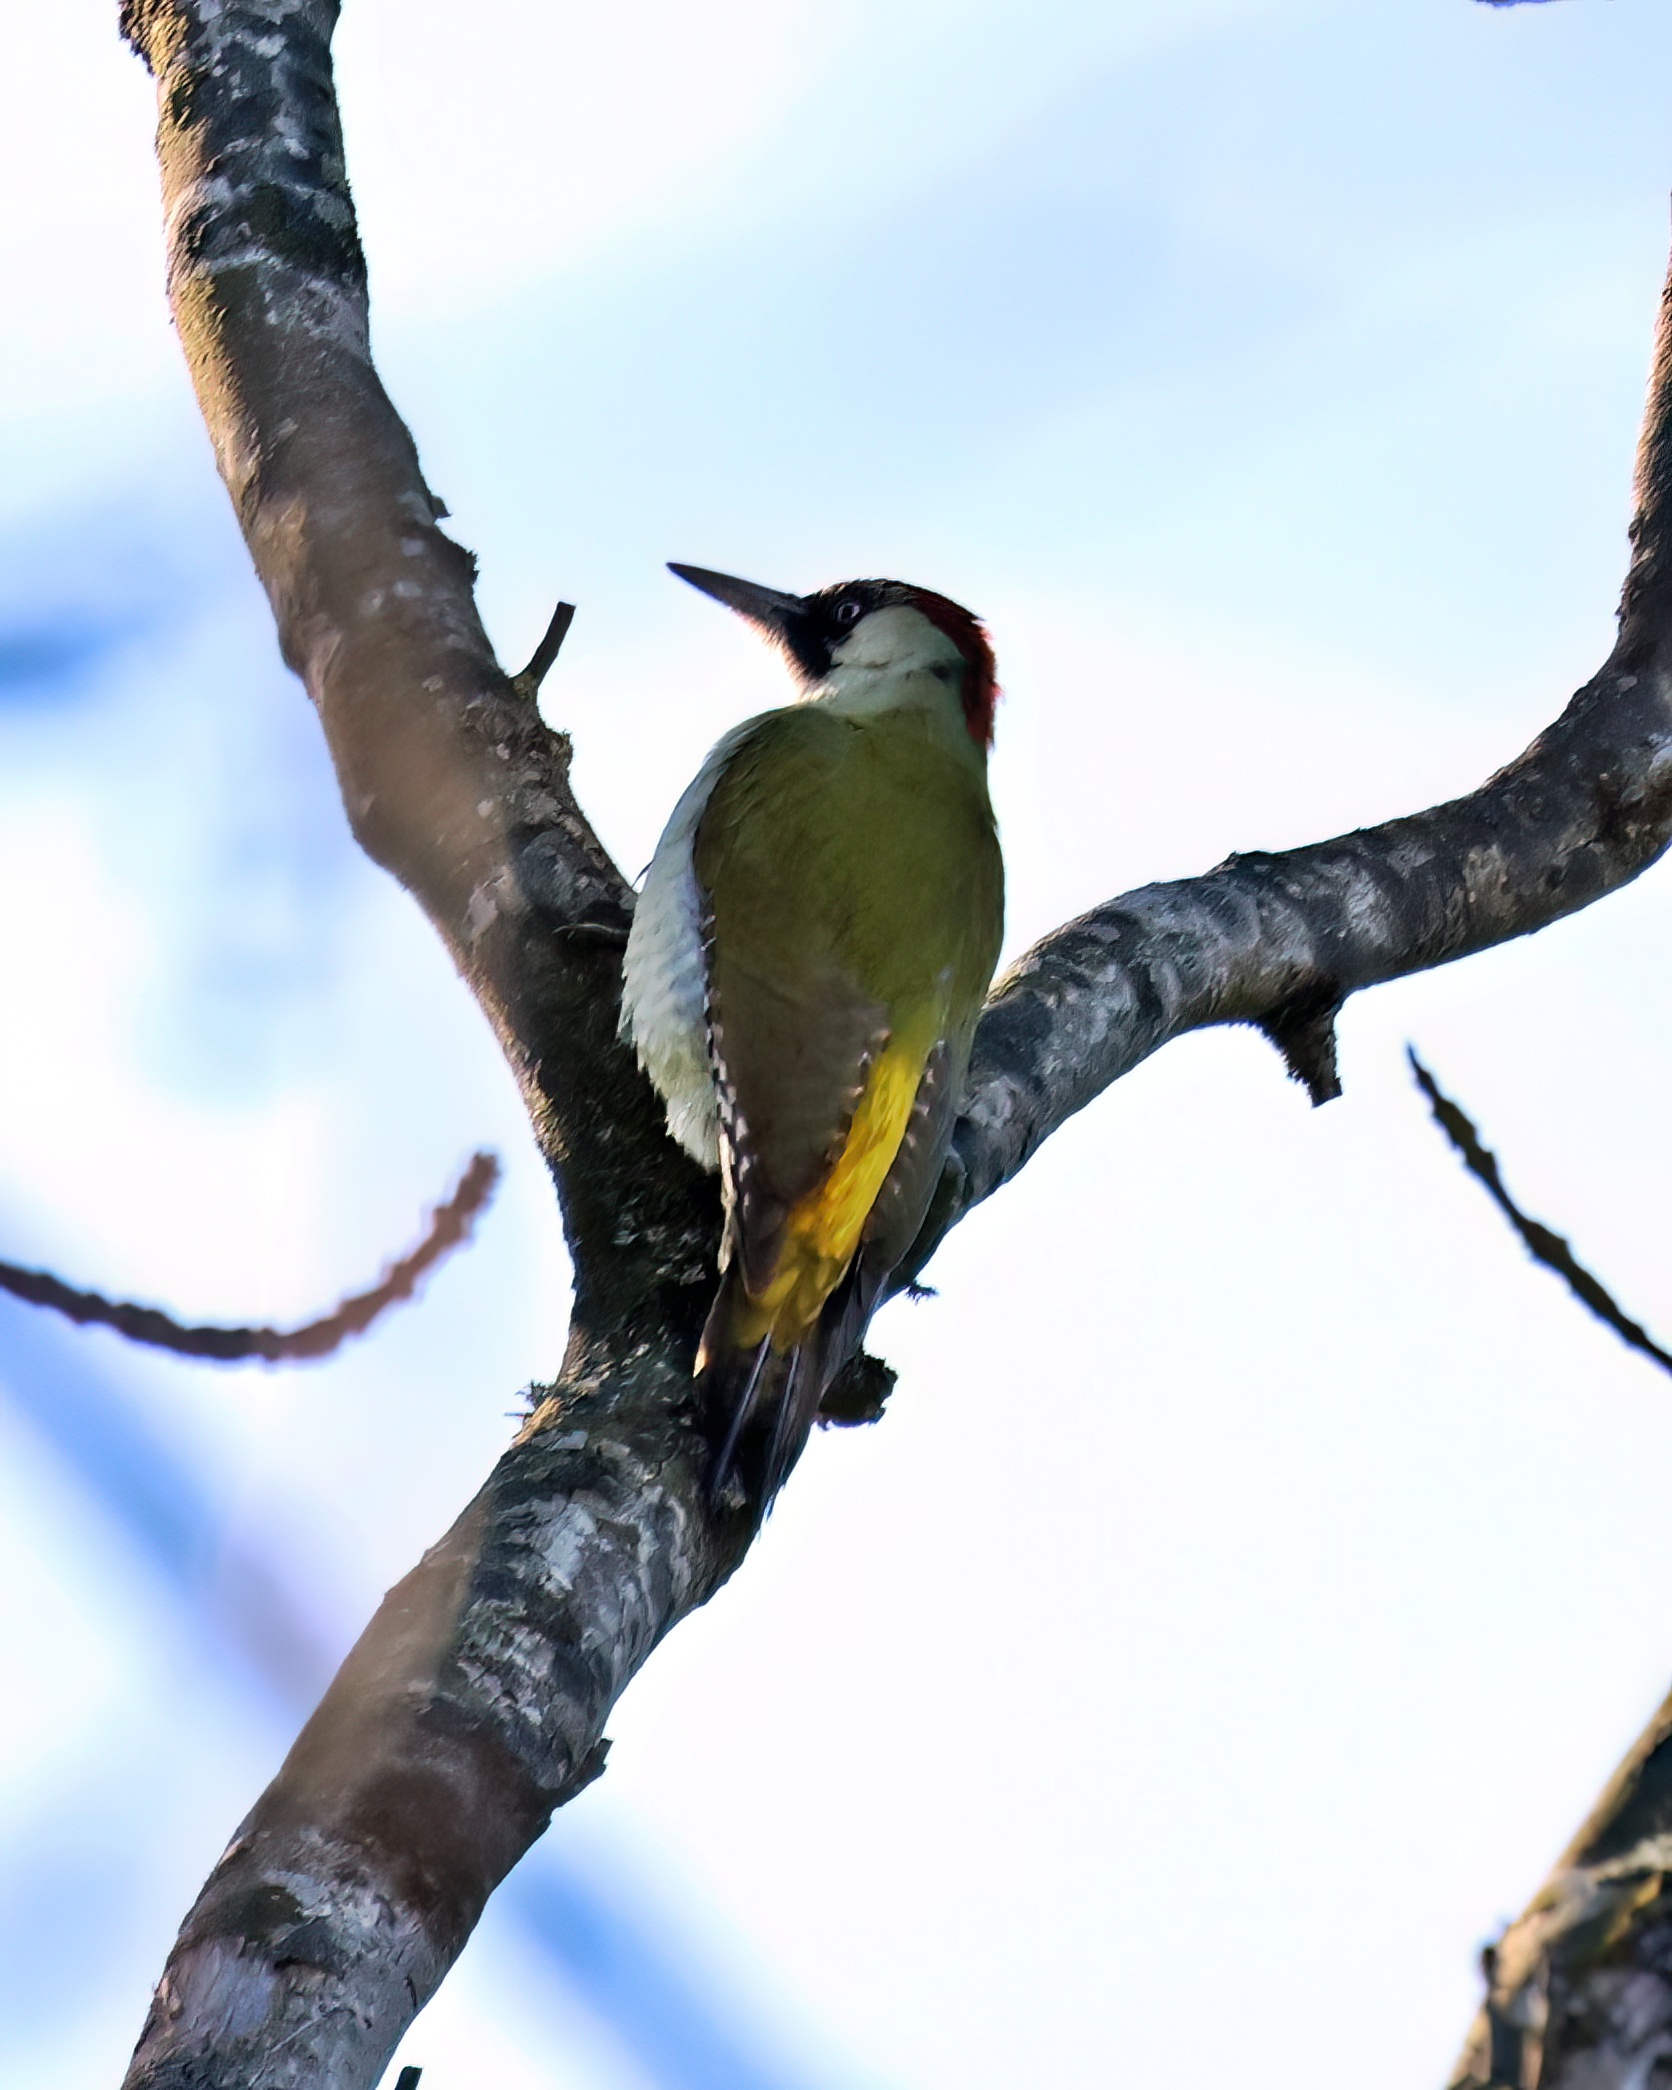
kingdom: Animalia
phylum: Chordata
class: Aves
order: Piciformes
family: Picidae
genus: Picus
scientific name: Picus viridis
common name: Grønspætte
